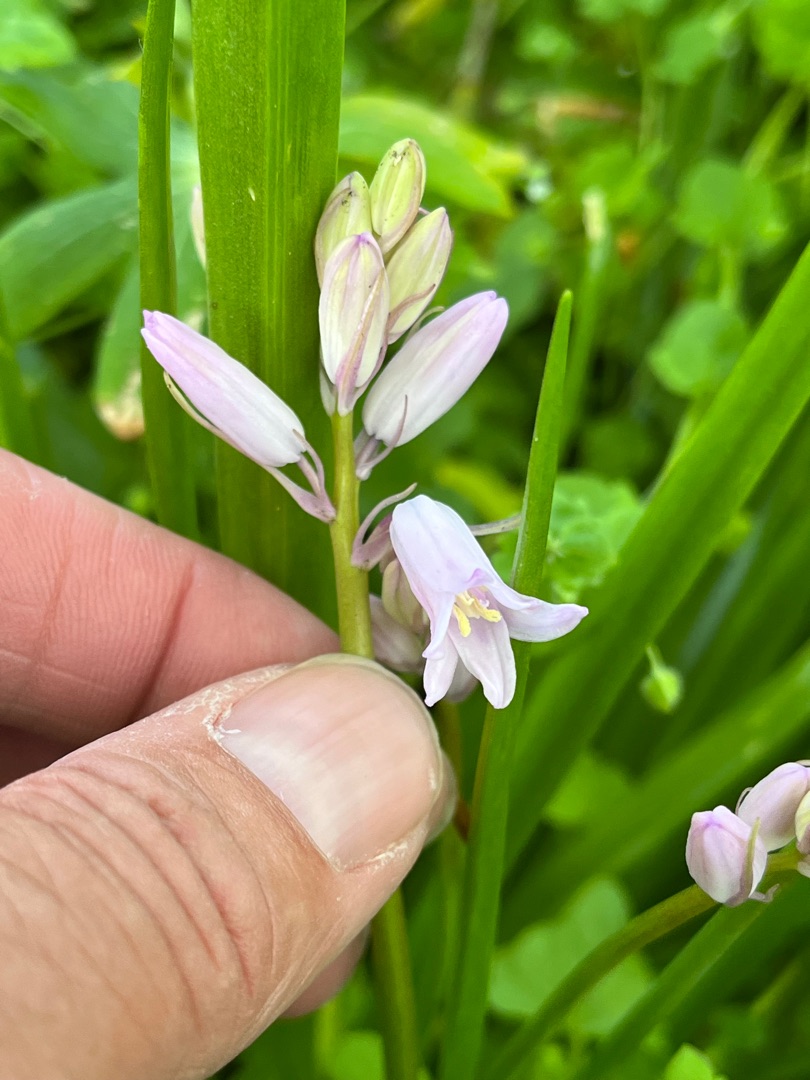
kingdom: Plantae
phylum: Tracheophyta
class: Liliopsida
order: Asparagales
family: Asparagaceae
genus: Hyacinthoides
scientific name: Hyacinthoides massartiana
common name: Hybrid-klokkeskilla
